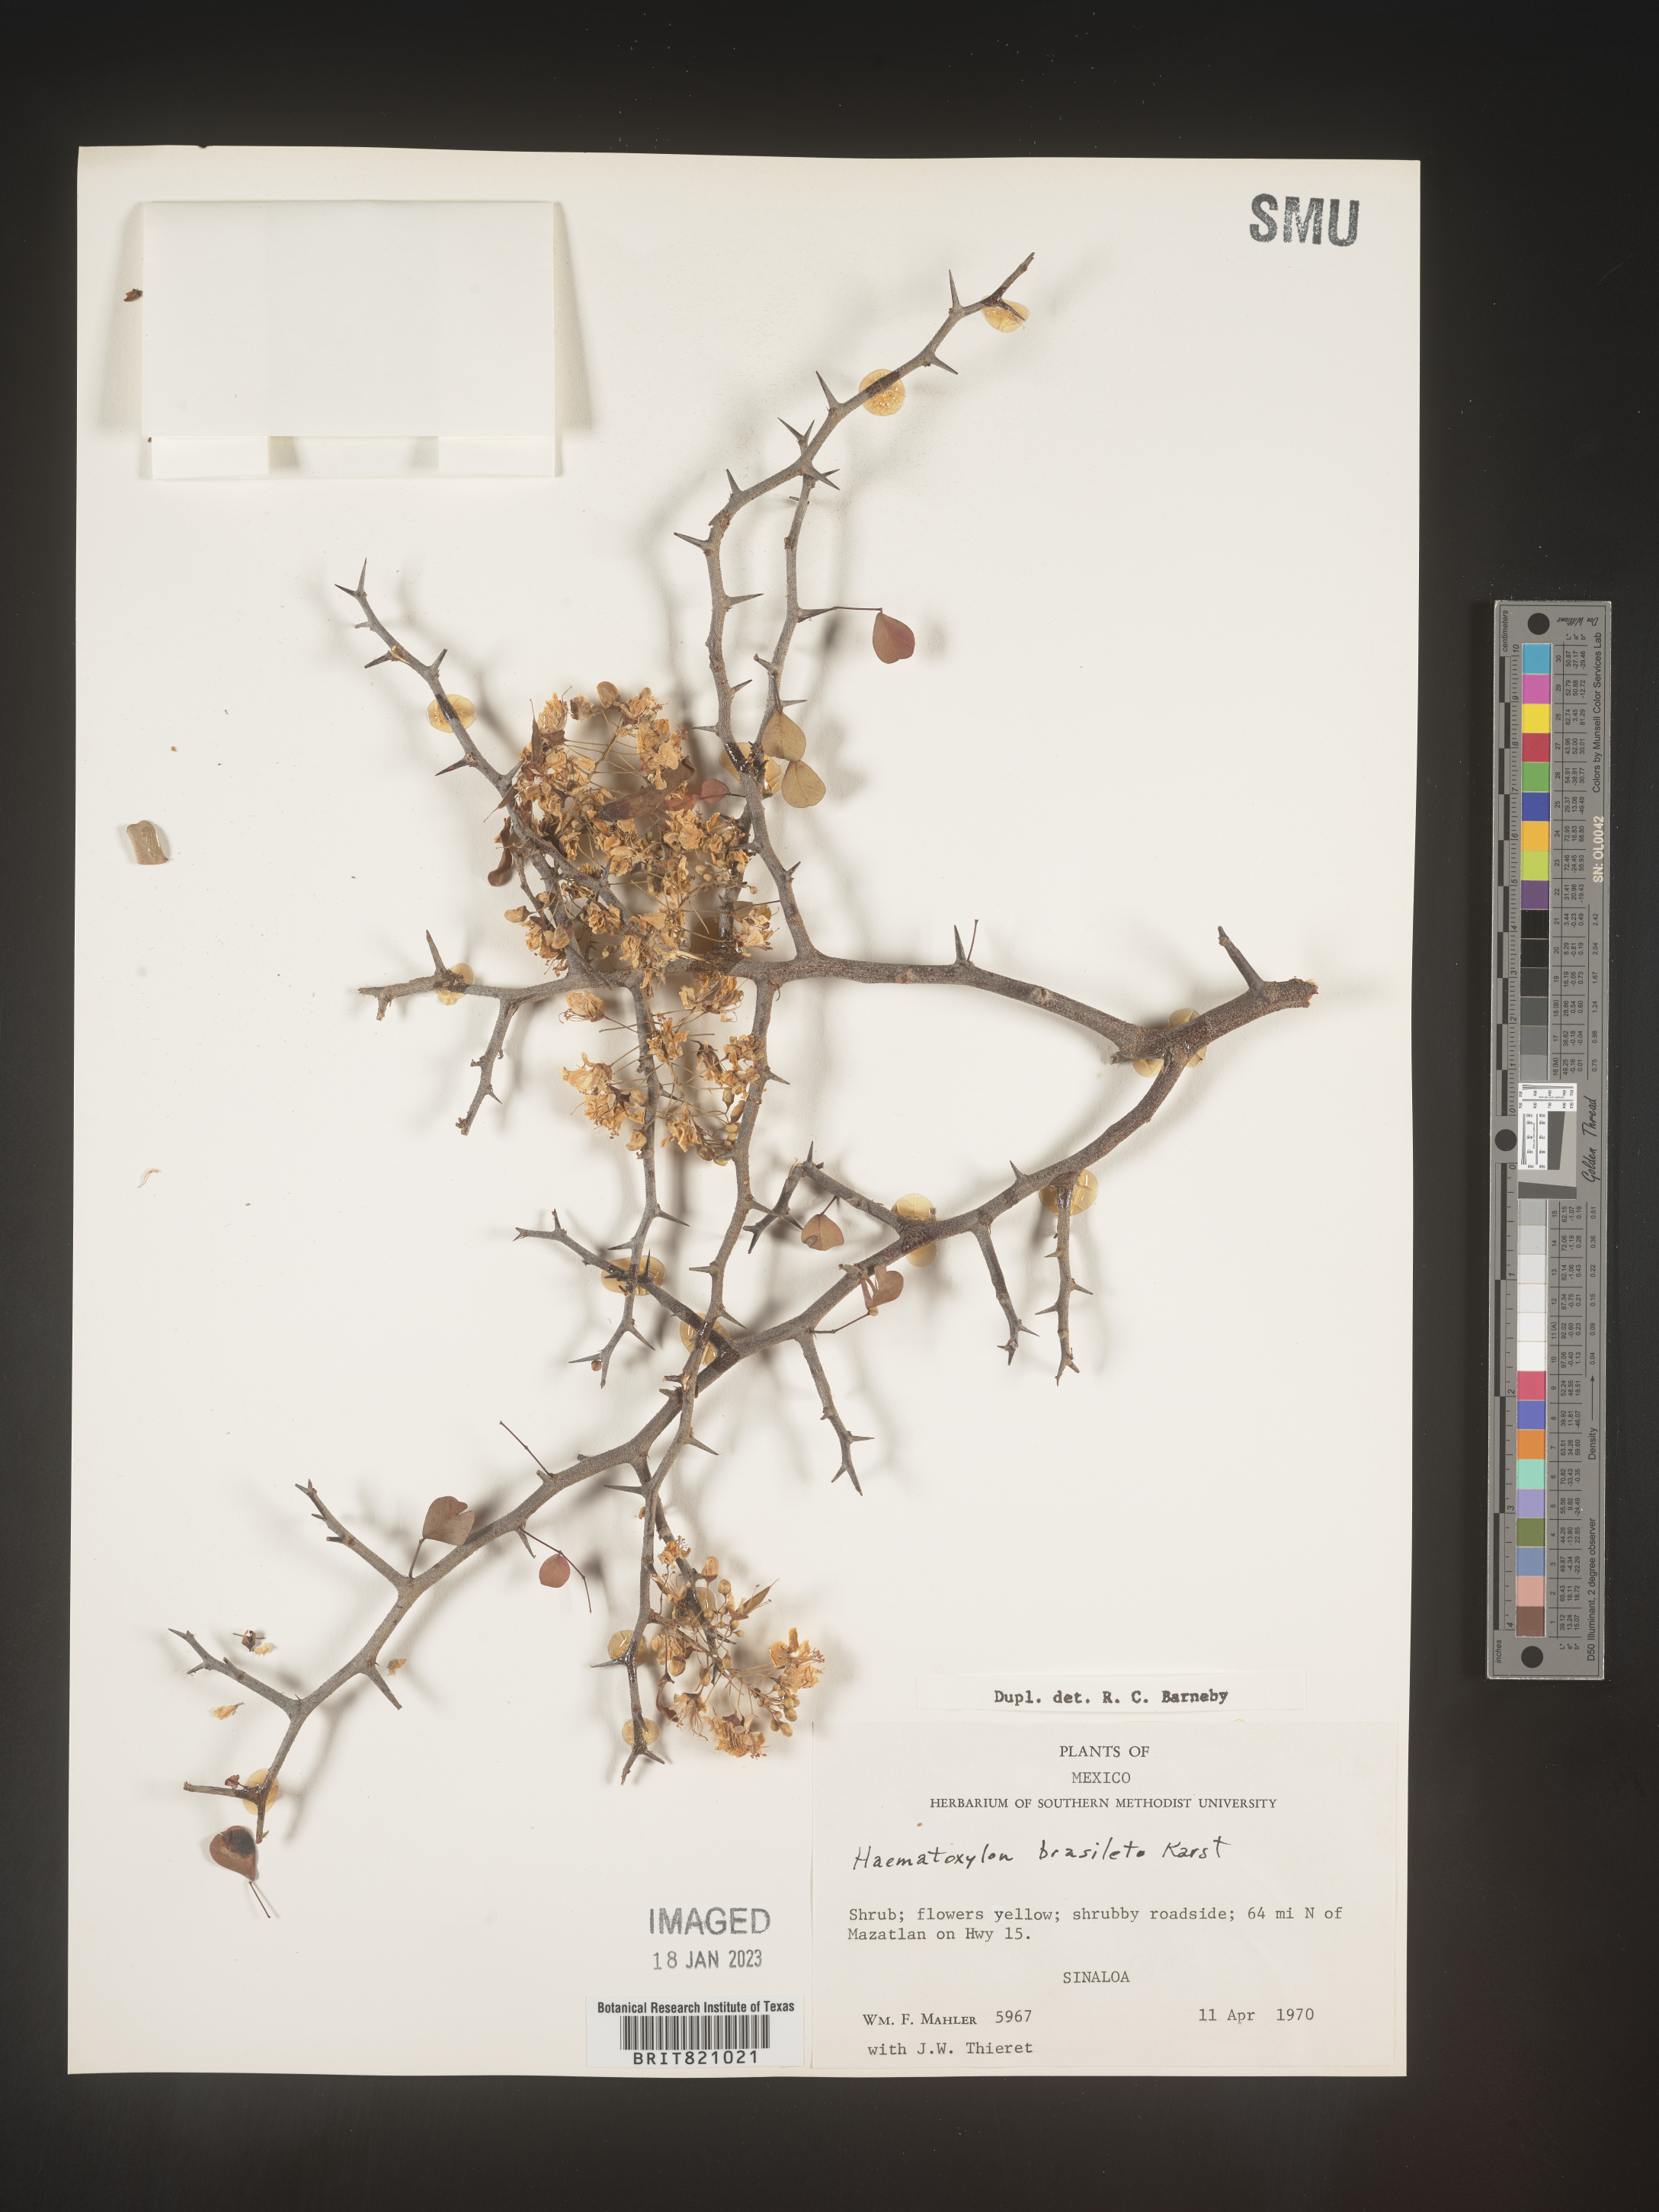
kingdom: Plantae
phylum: Tracheophyta
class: Magnoliopsida
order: Fabales
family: Fabaceae
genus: Haematoxylum
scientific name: Haematoxylum
